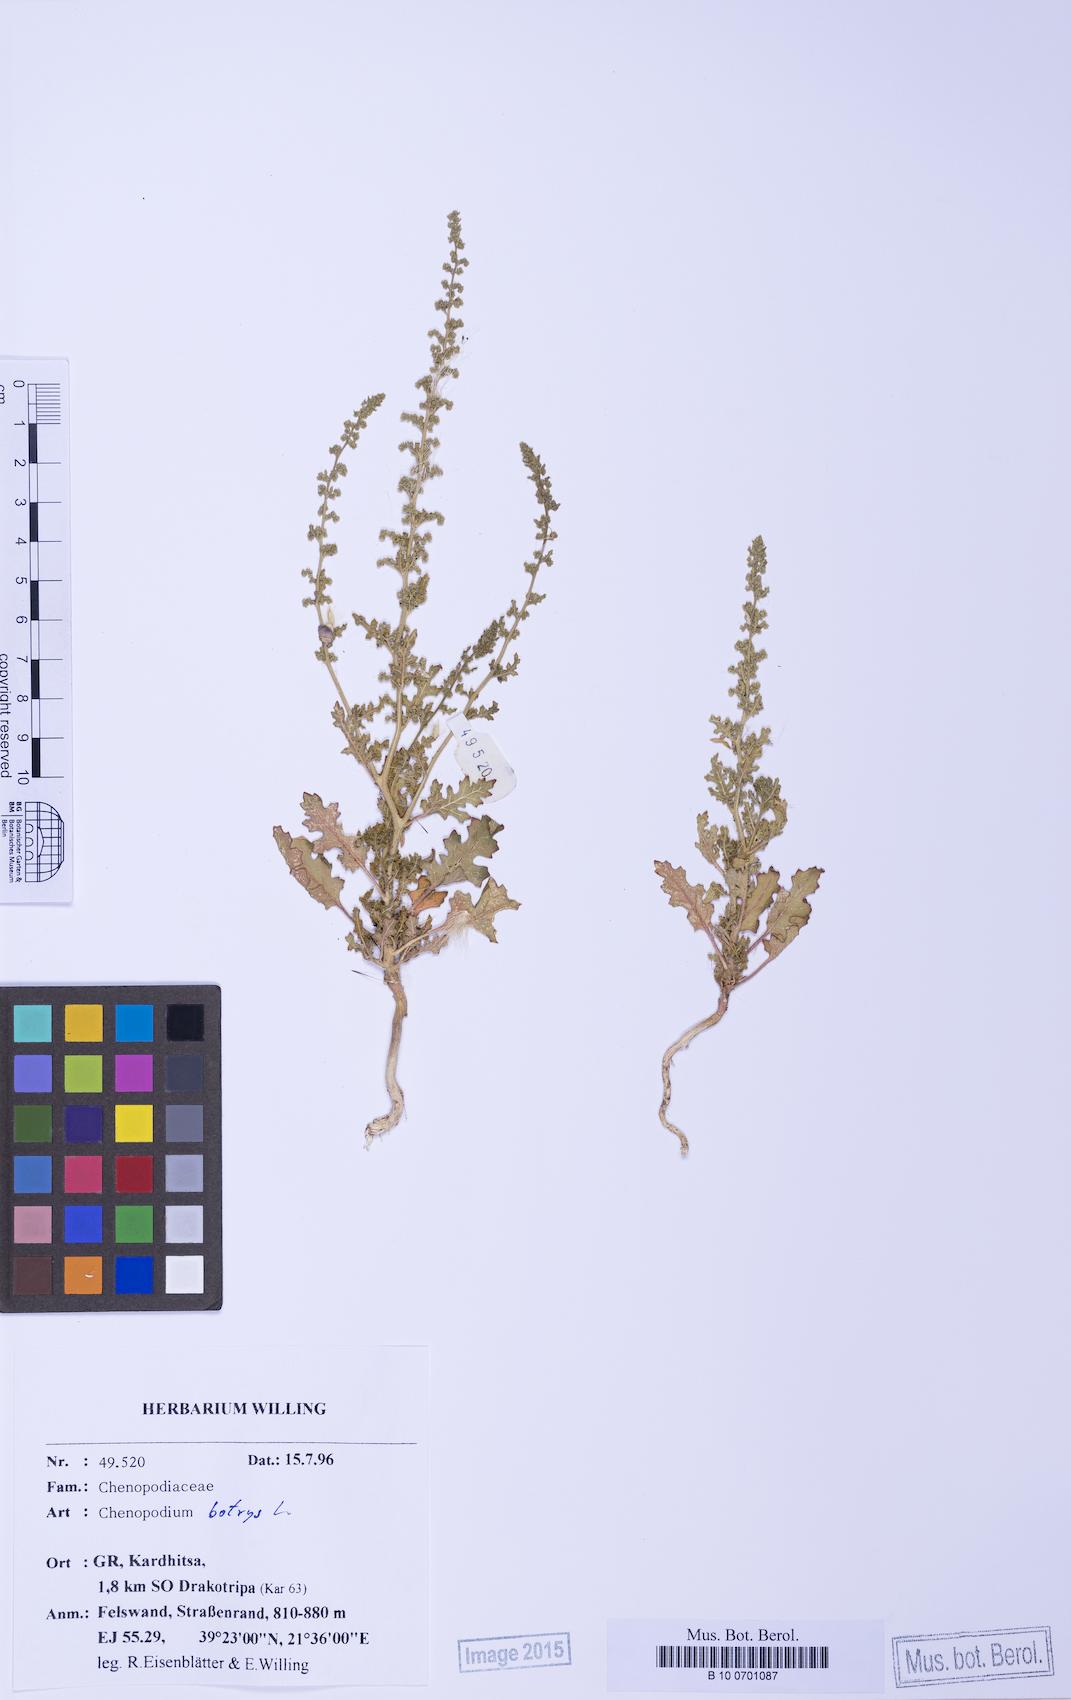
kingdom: Plantae
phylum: Tracheophyta
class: Magnoliopsida
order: Caryophyllales
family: Amaranthaceae
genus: Dysphania
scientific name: Dysphania botrys
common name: Feather-geranium
